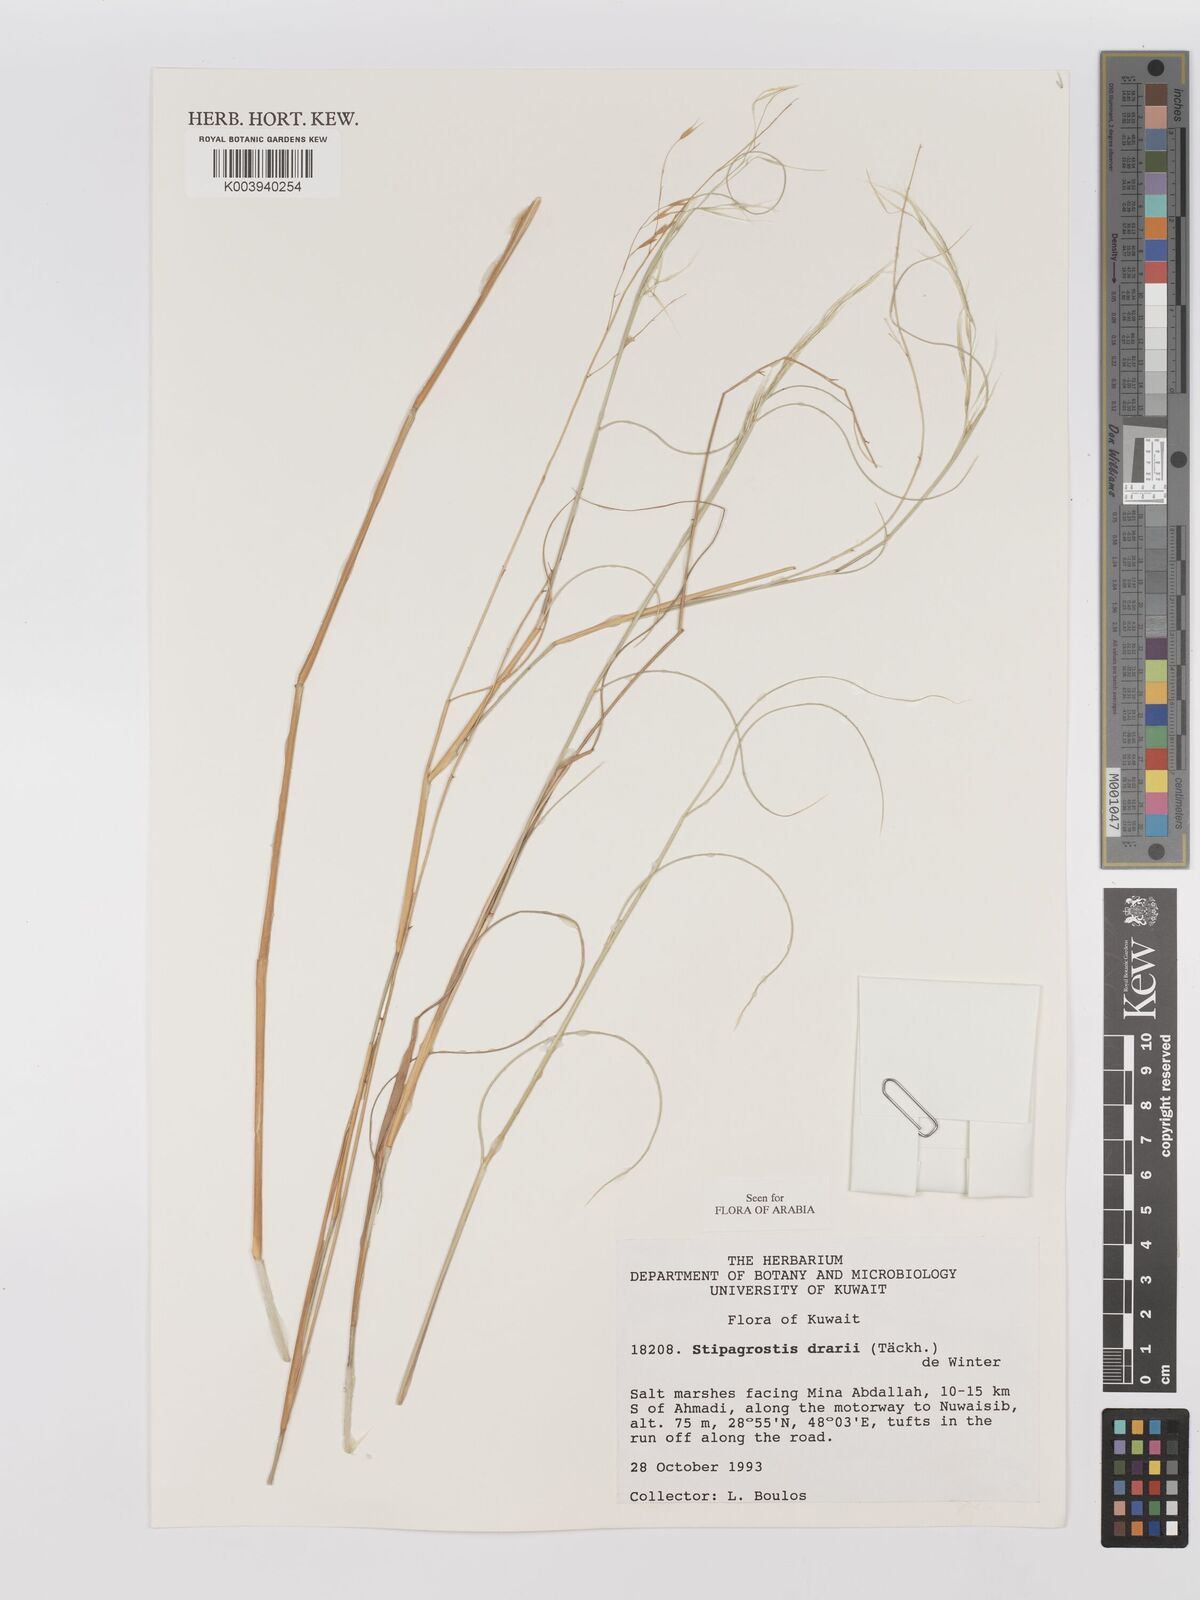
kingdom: Plantae
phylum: Tracheophyta
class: Liliopsida
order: Poales
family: Poaceae
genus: Stipagrostis
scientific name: Stipagrostis drarii
